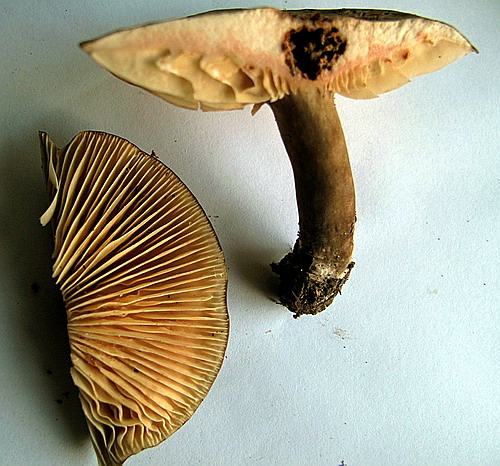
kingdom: Fungi
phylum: Basidiomycota
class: Agaricomycetes
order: Russulales
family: Russulaceae
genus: Lactarius
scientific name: Lactarius romagnesii
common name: fjernbladet mælkehat
